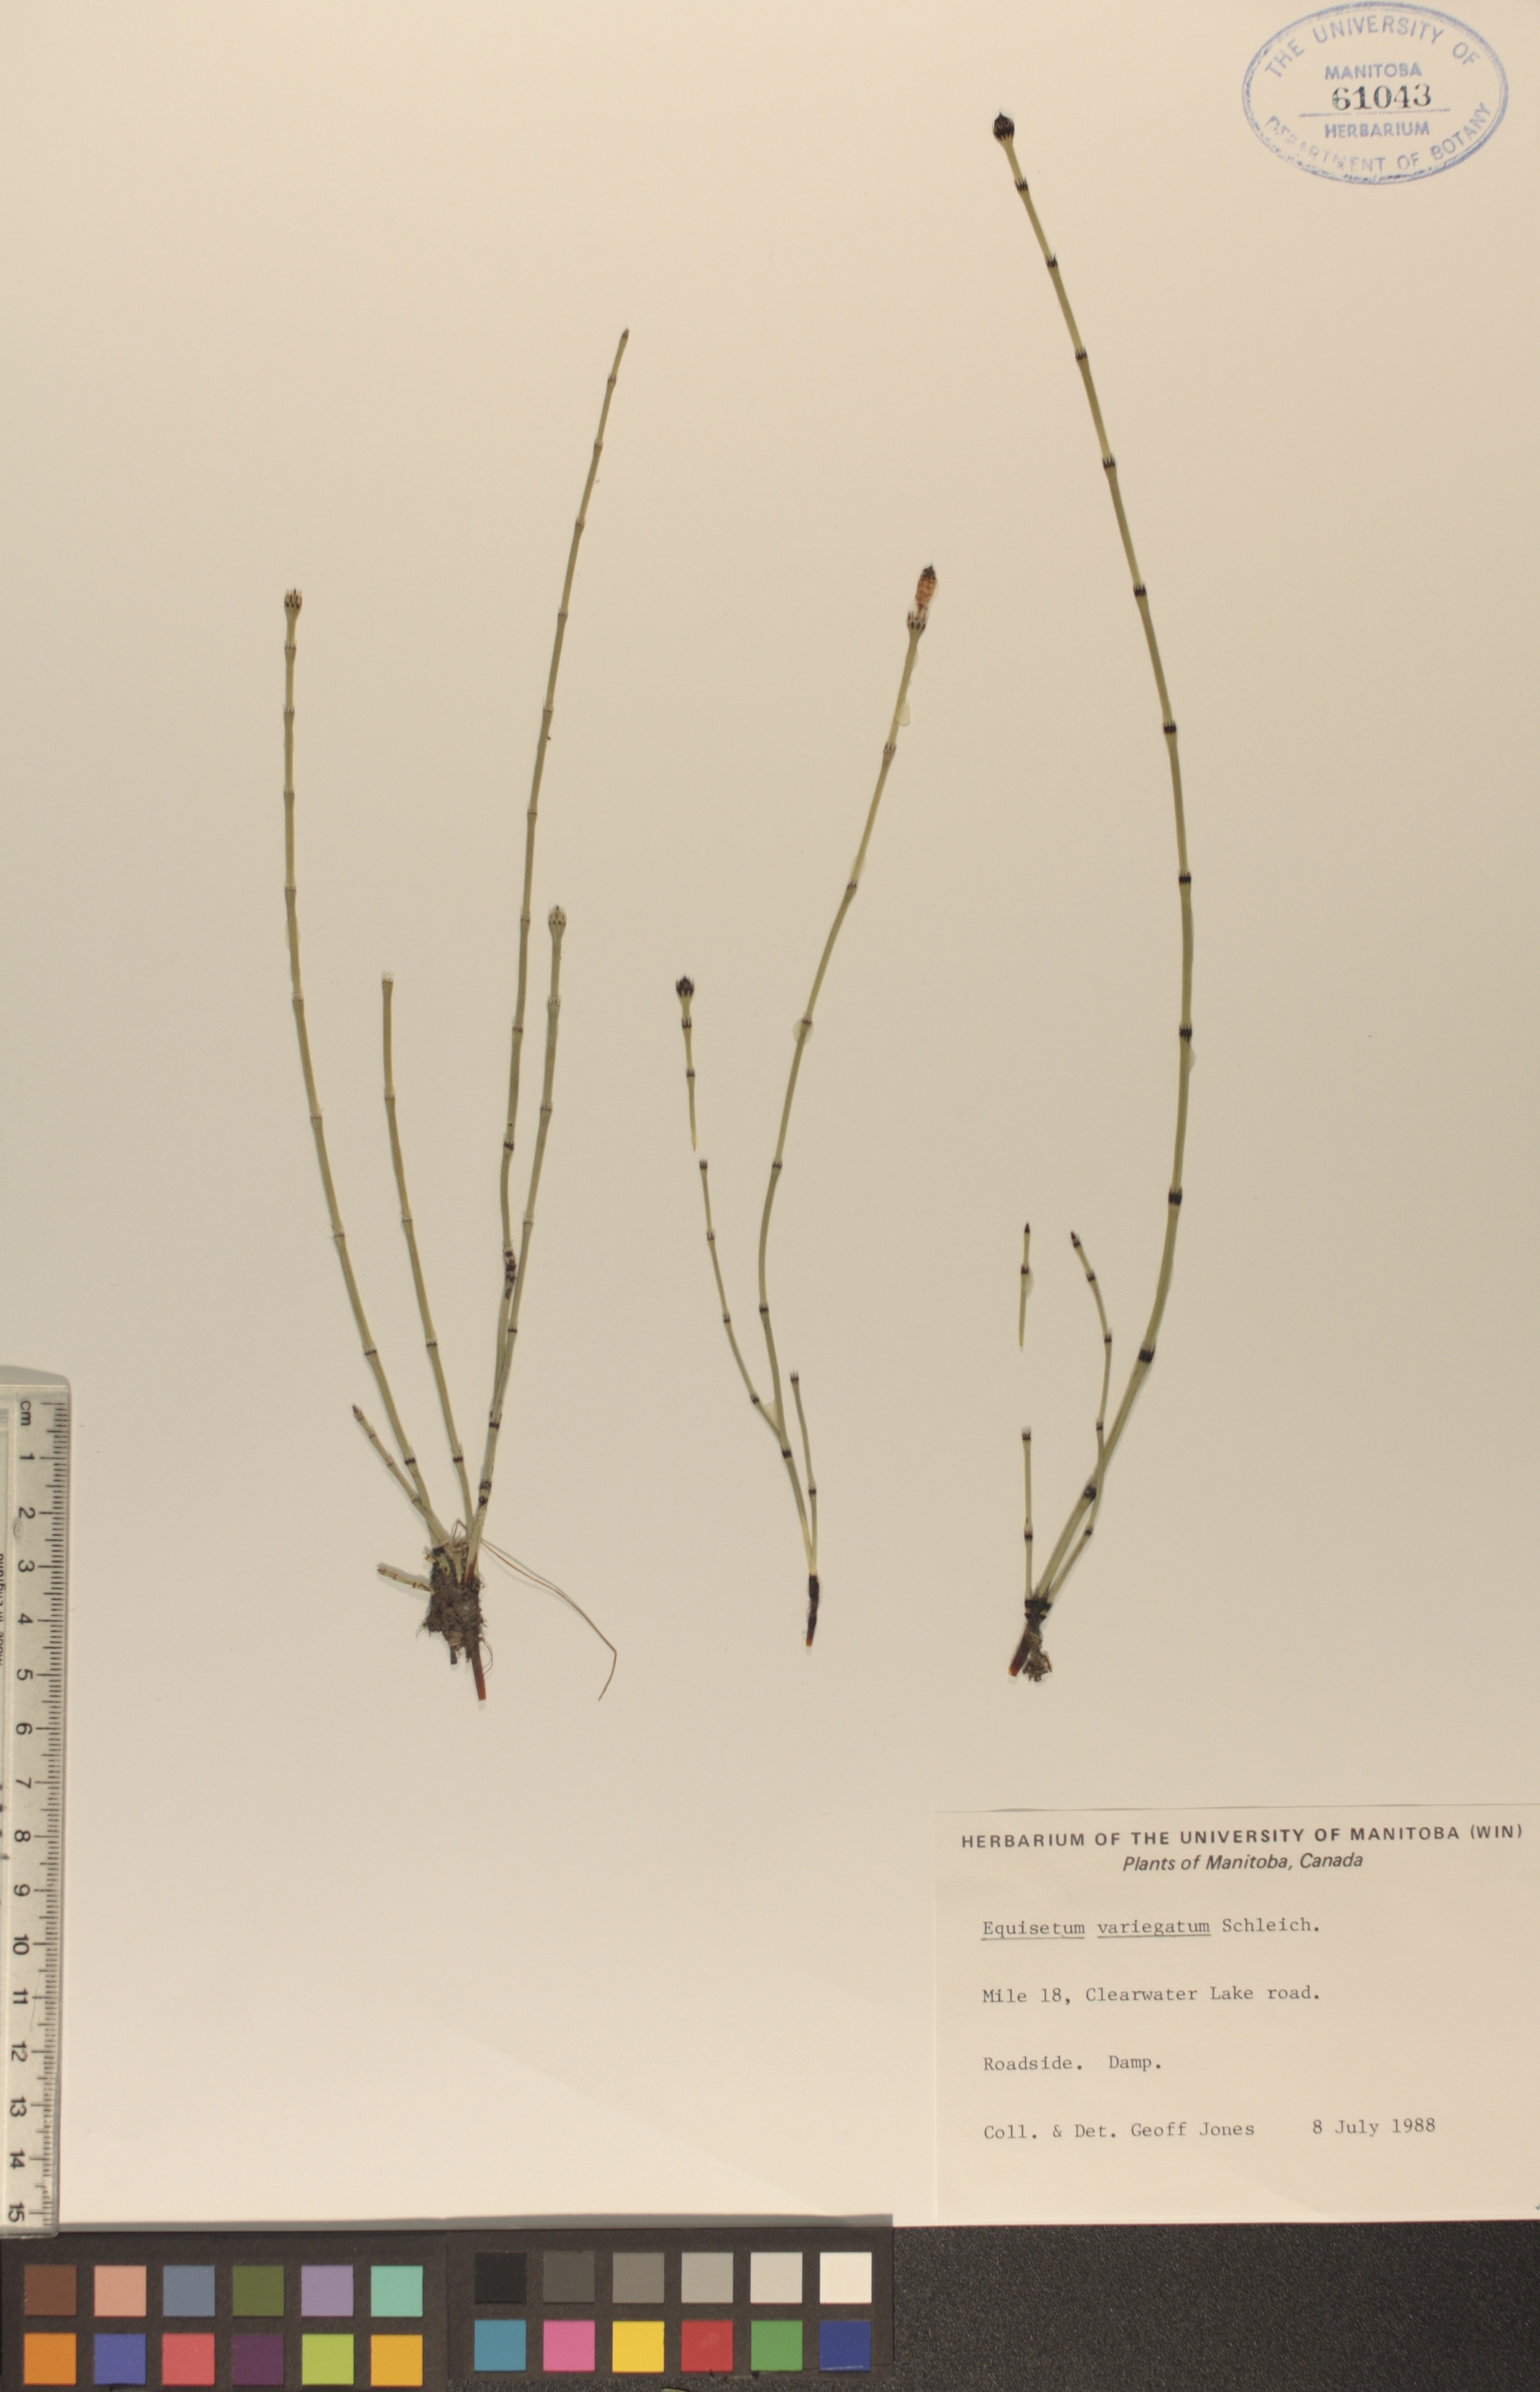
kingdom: Plantae
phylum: Tracheophyta
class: Polypodiopsida
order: Equisetales
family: Equisetaceae
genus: Equisetum
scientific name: Equisetum variegatum
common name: Variegated horsetail
